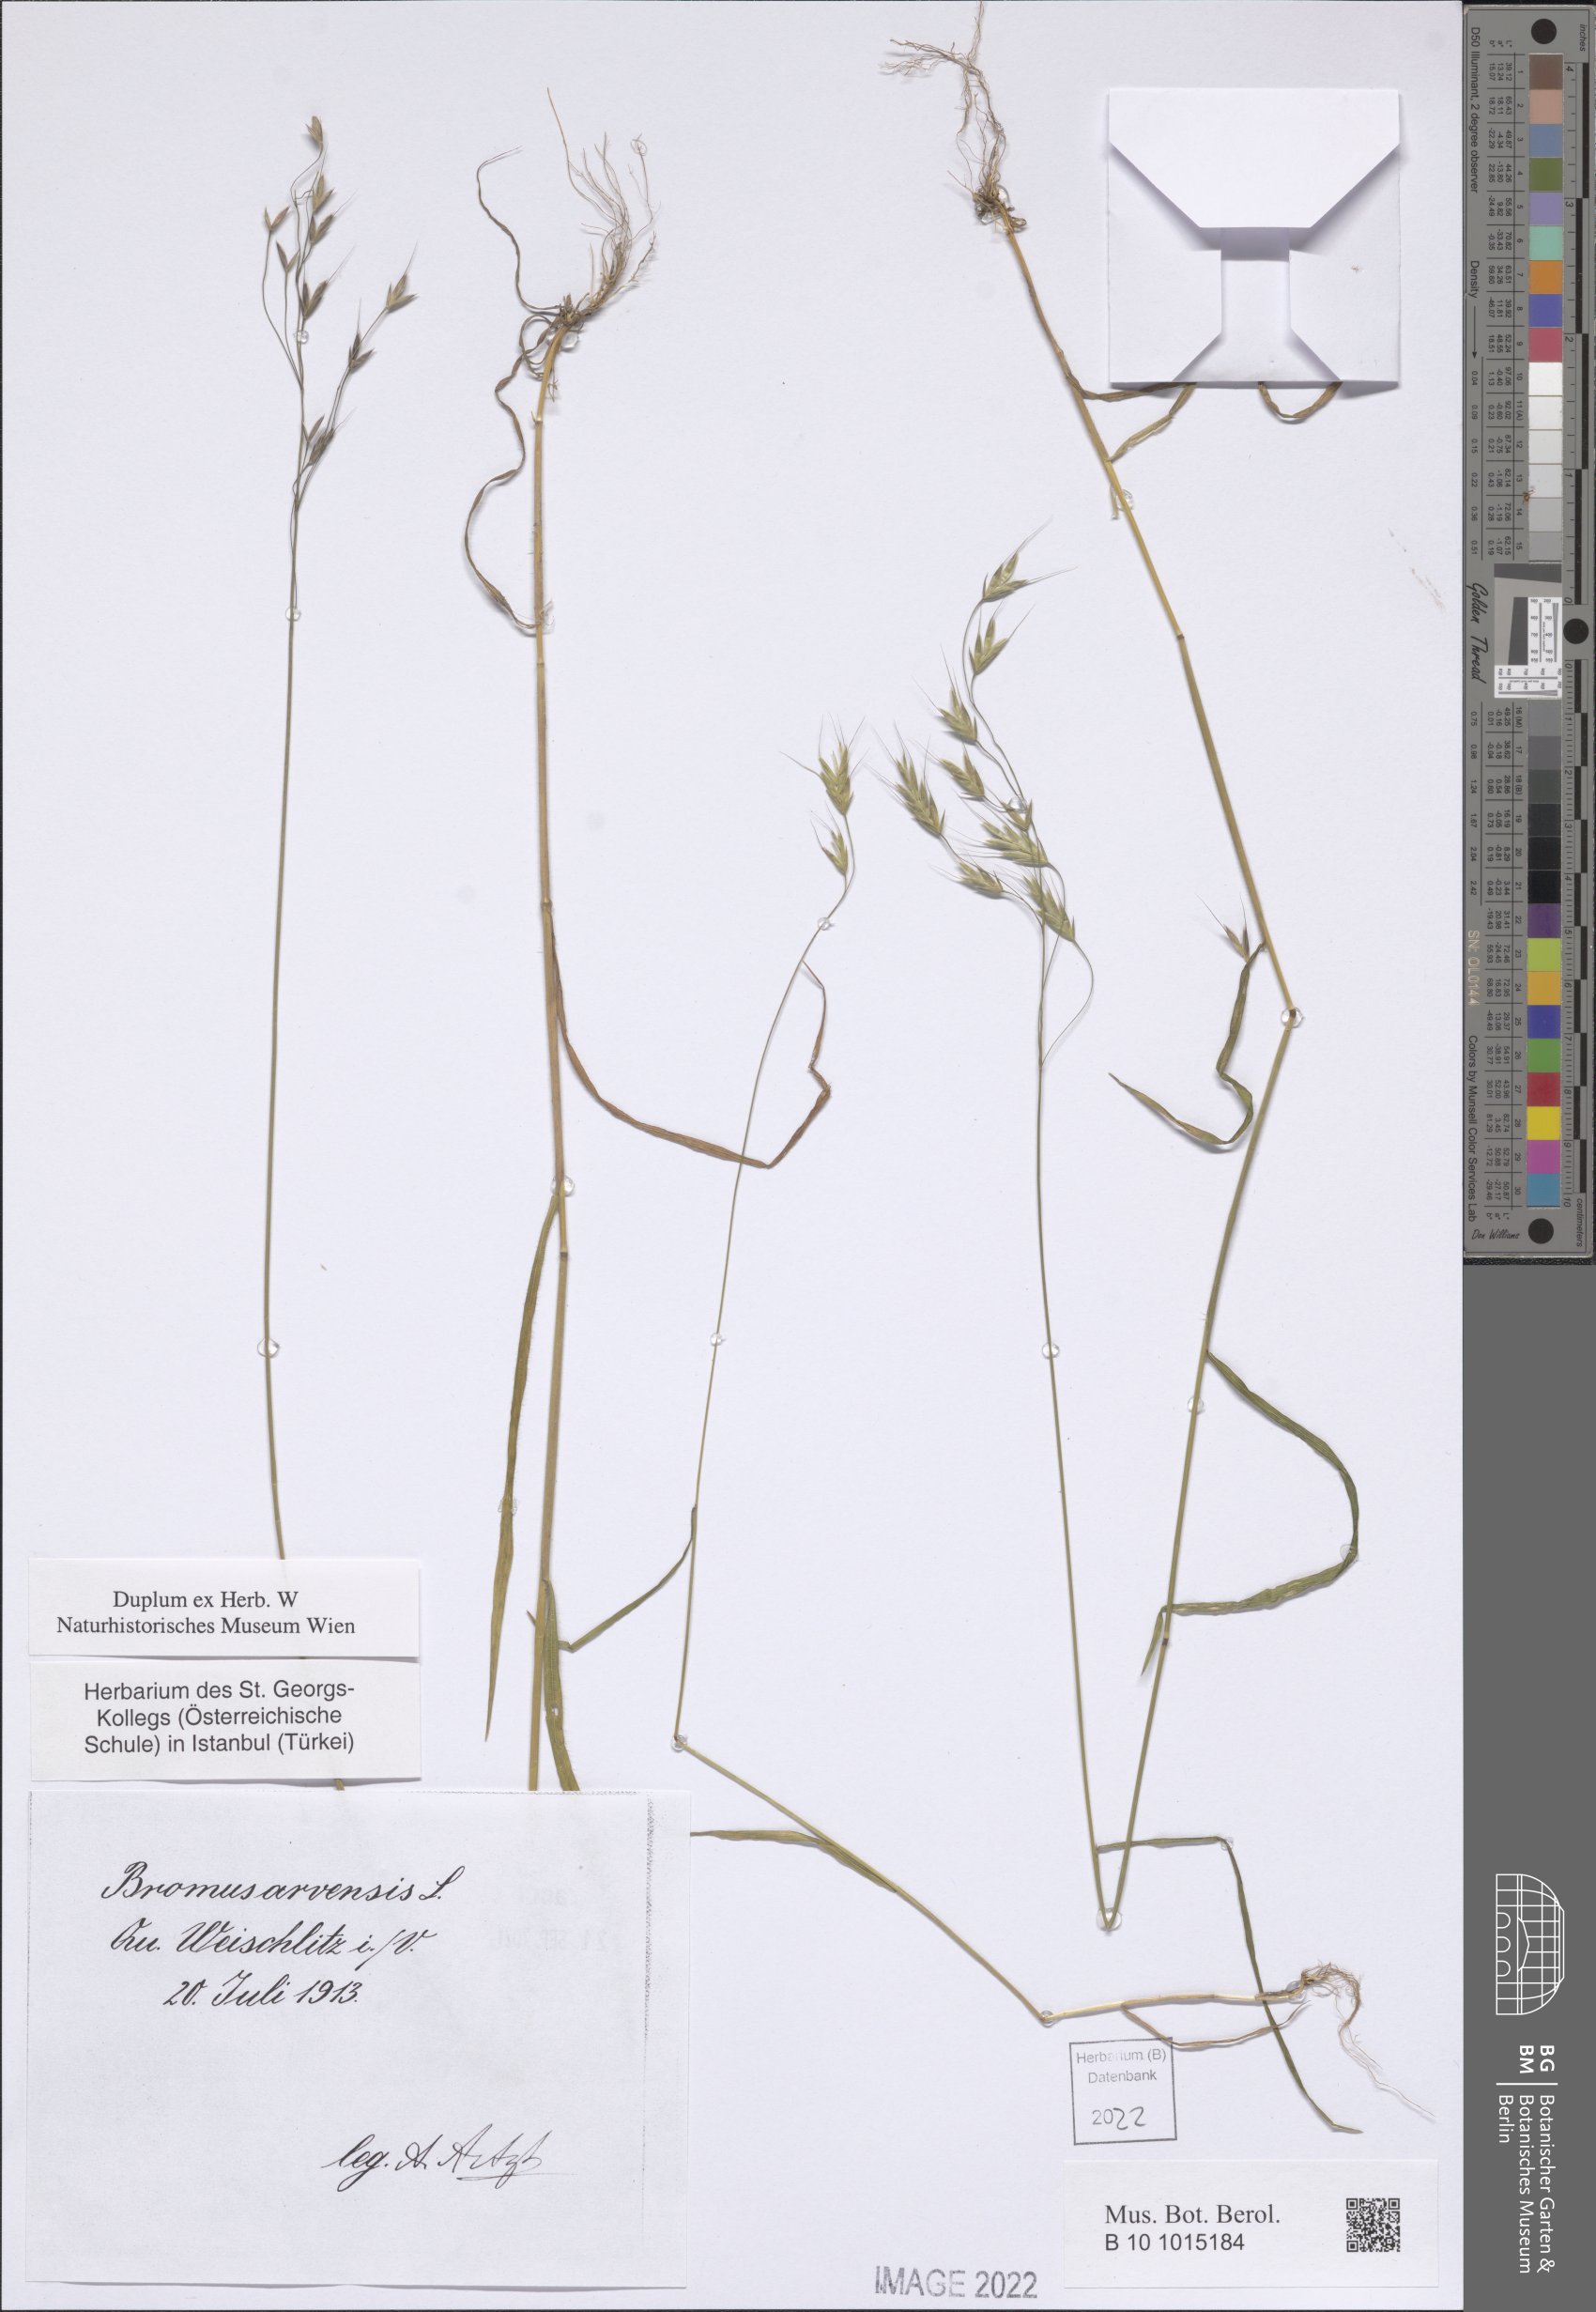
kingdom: Plantae
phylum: Tracheophyta
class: Liliopsida
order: Poales
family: Poaceae
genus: Bromus
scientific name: Bromus arvensis
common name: Field brome
